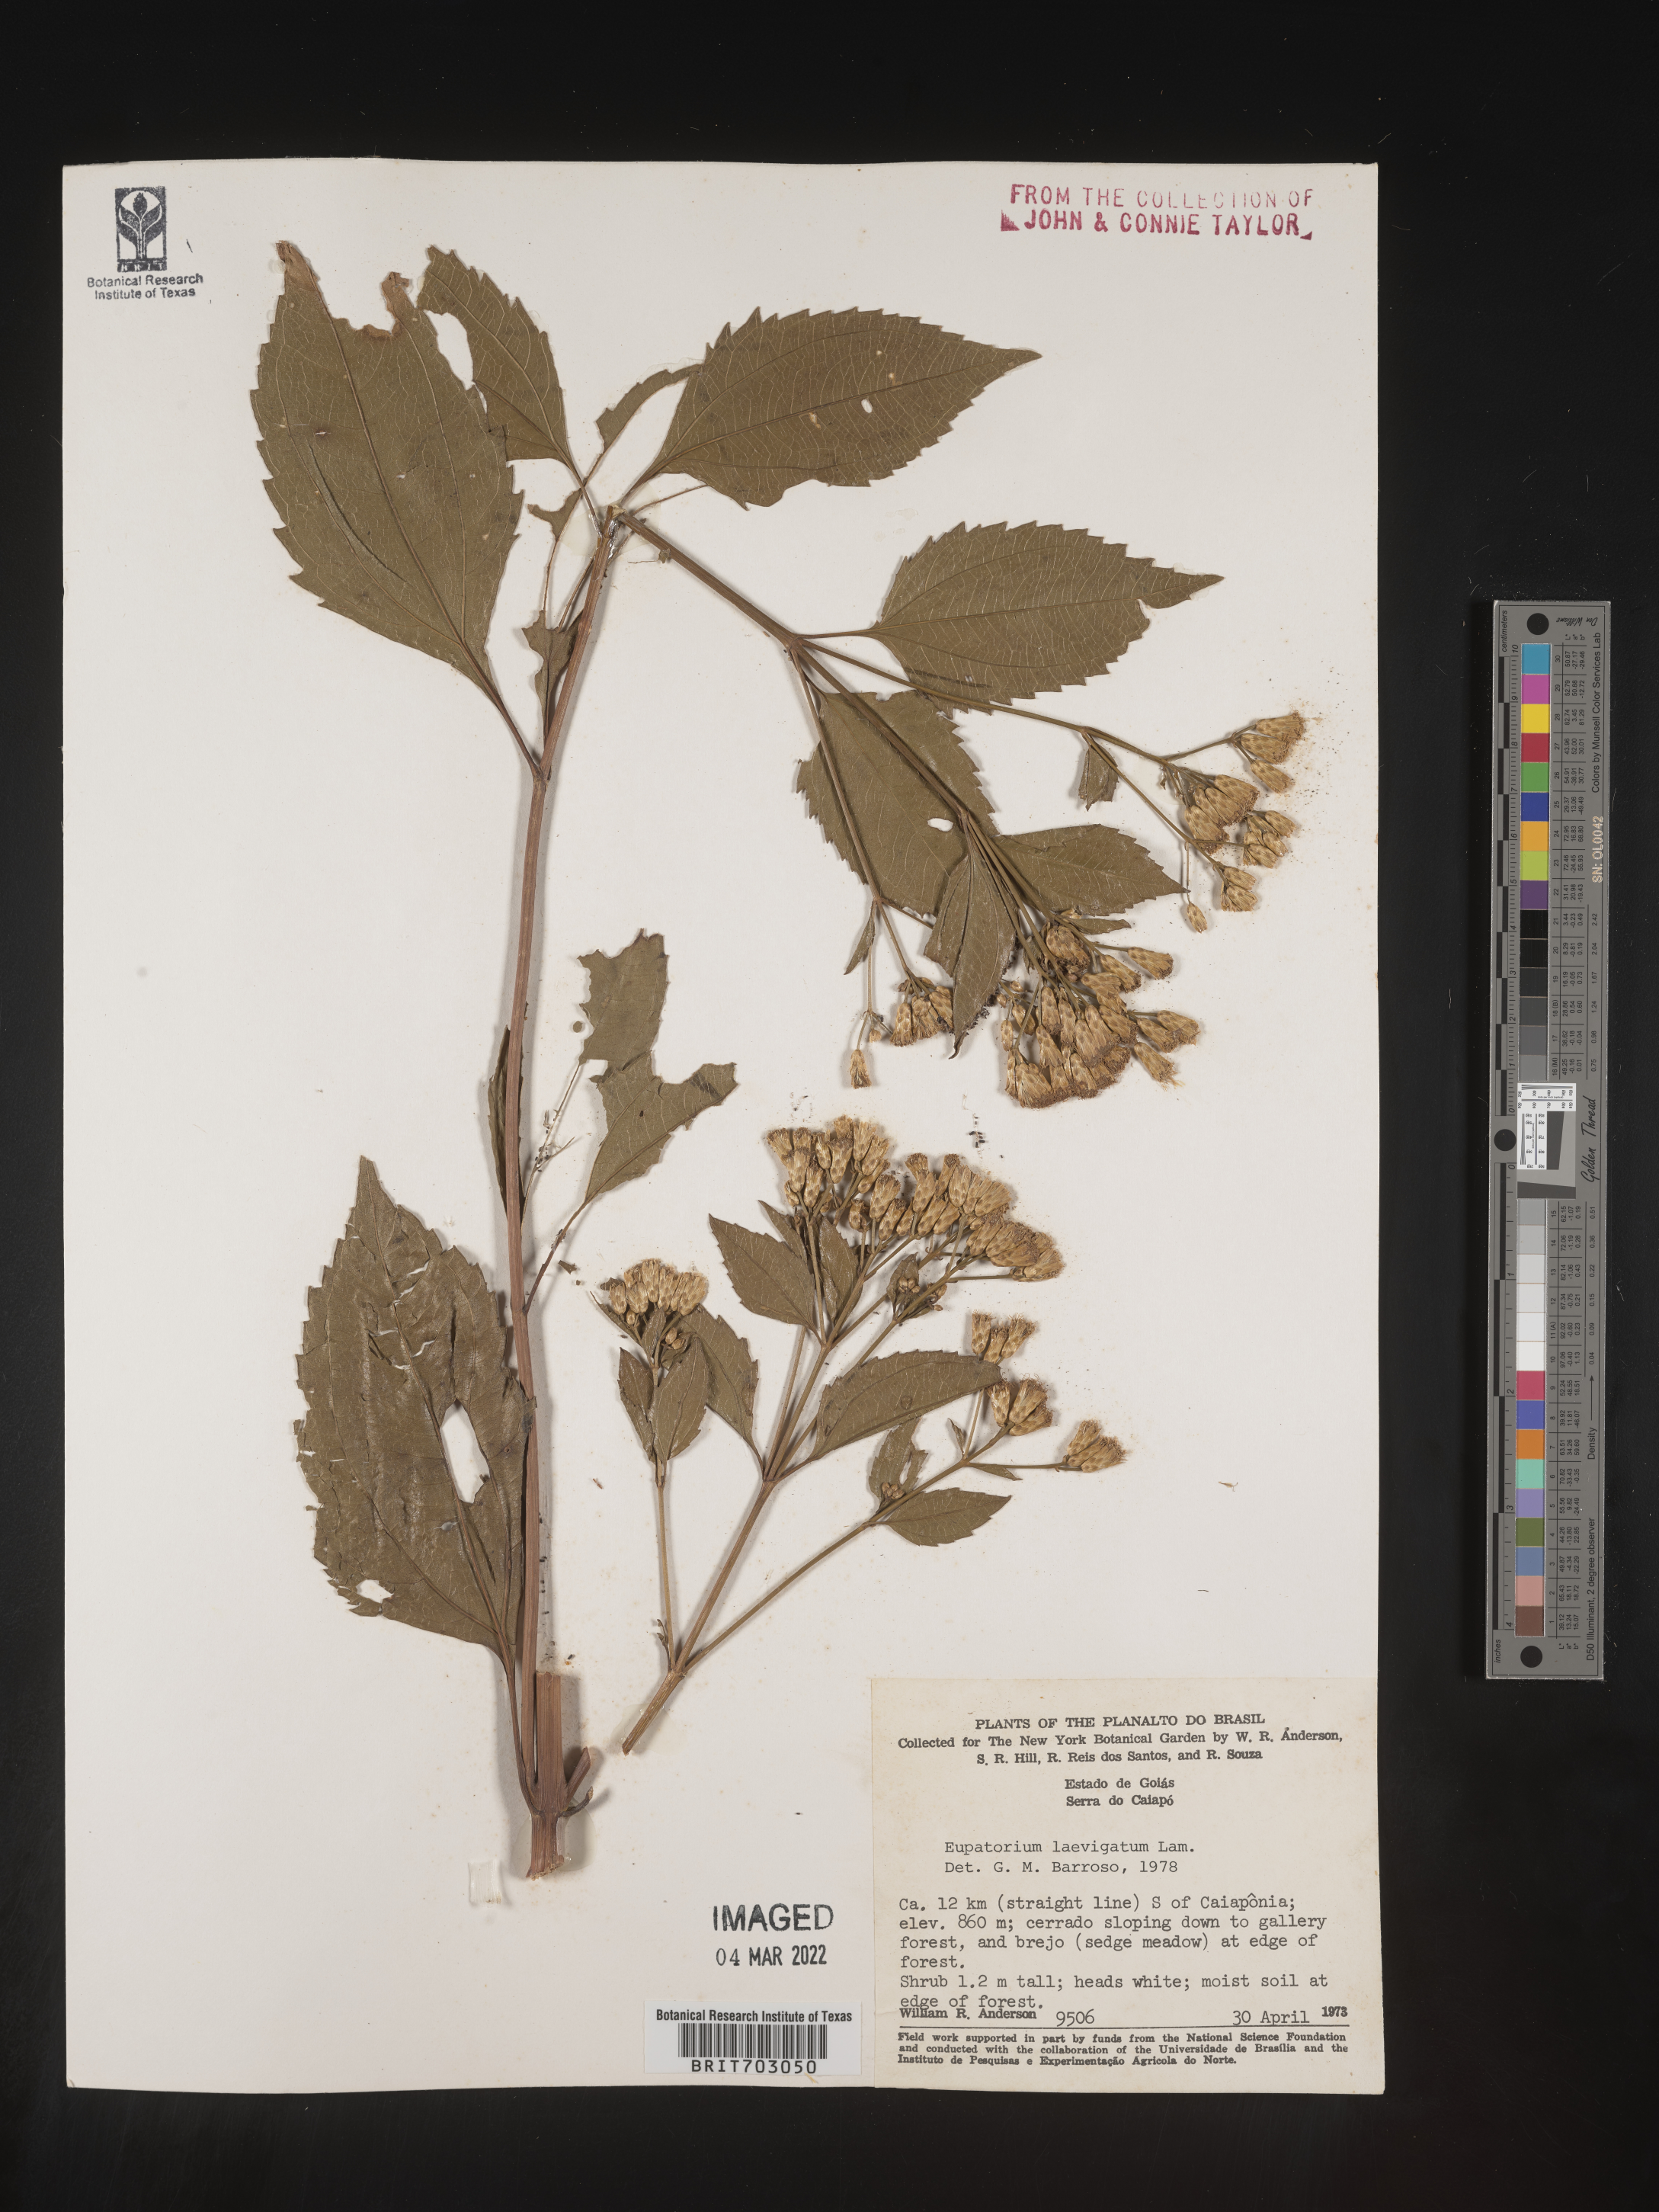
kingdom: Plantae
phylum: Tracheophyta
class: Magnoliopsida
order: Asterales
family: Asteraceae
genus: Eupatorium
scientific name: Eupatorium
